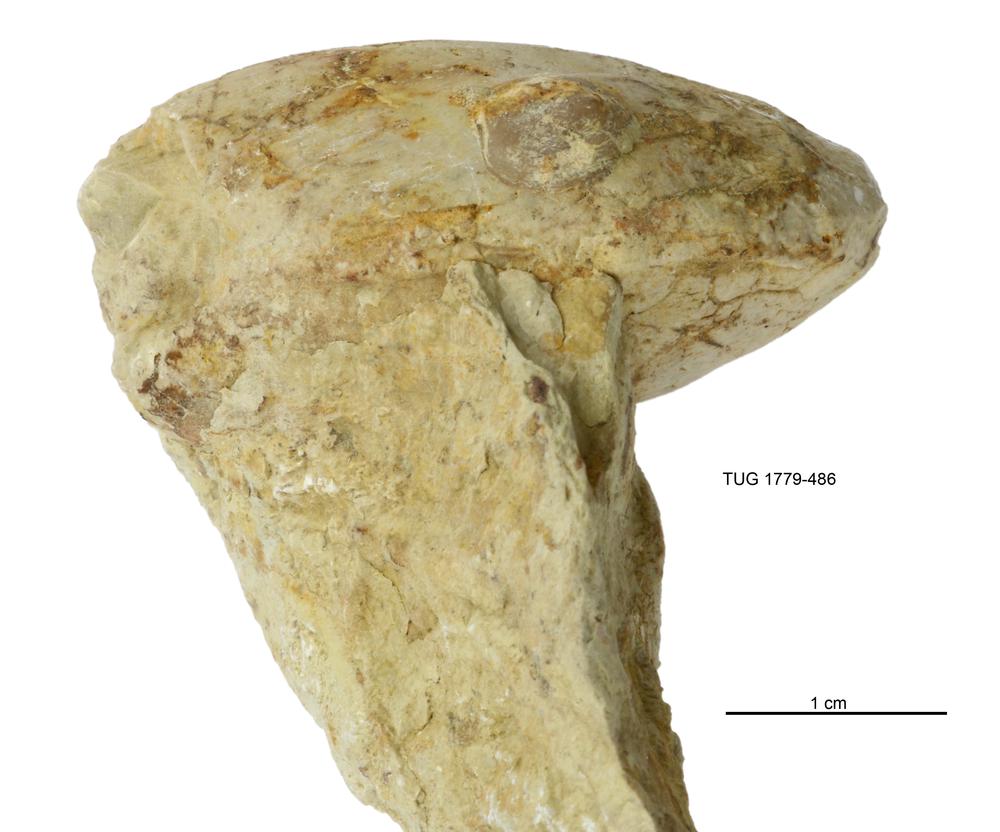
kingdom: Animalia
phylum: Mollusca
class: Bivalvia
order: Modiomorphida
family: Modiomorphidae
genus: Modiolopsis
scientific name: Modiolopsis
